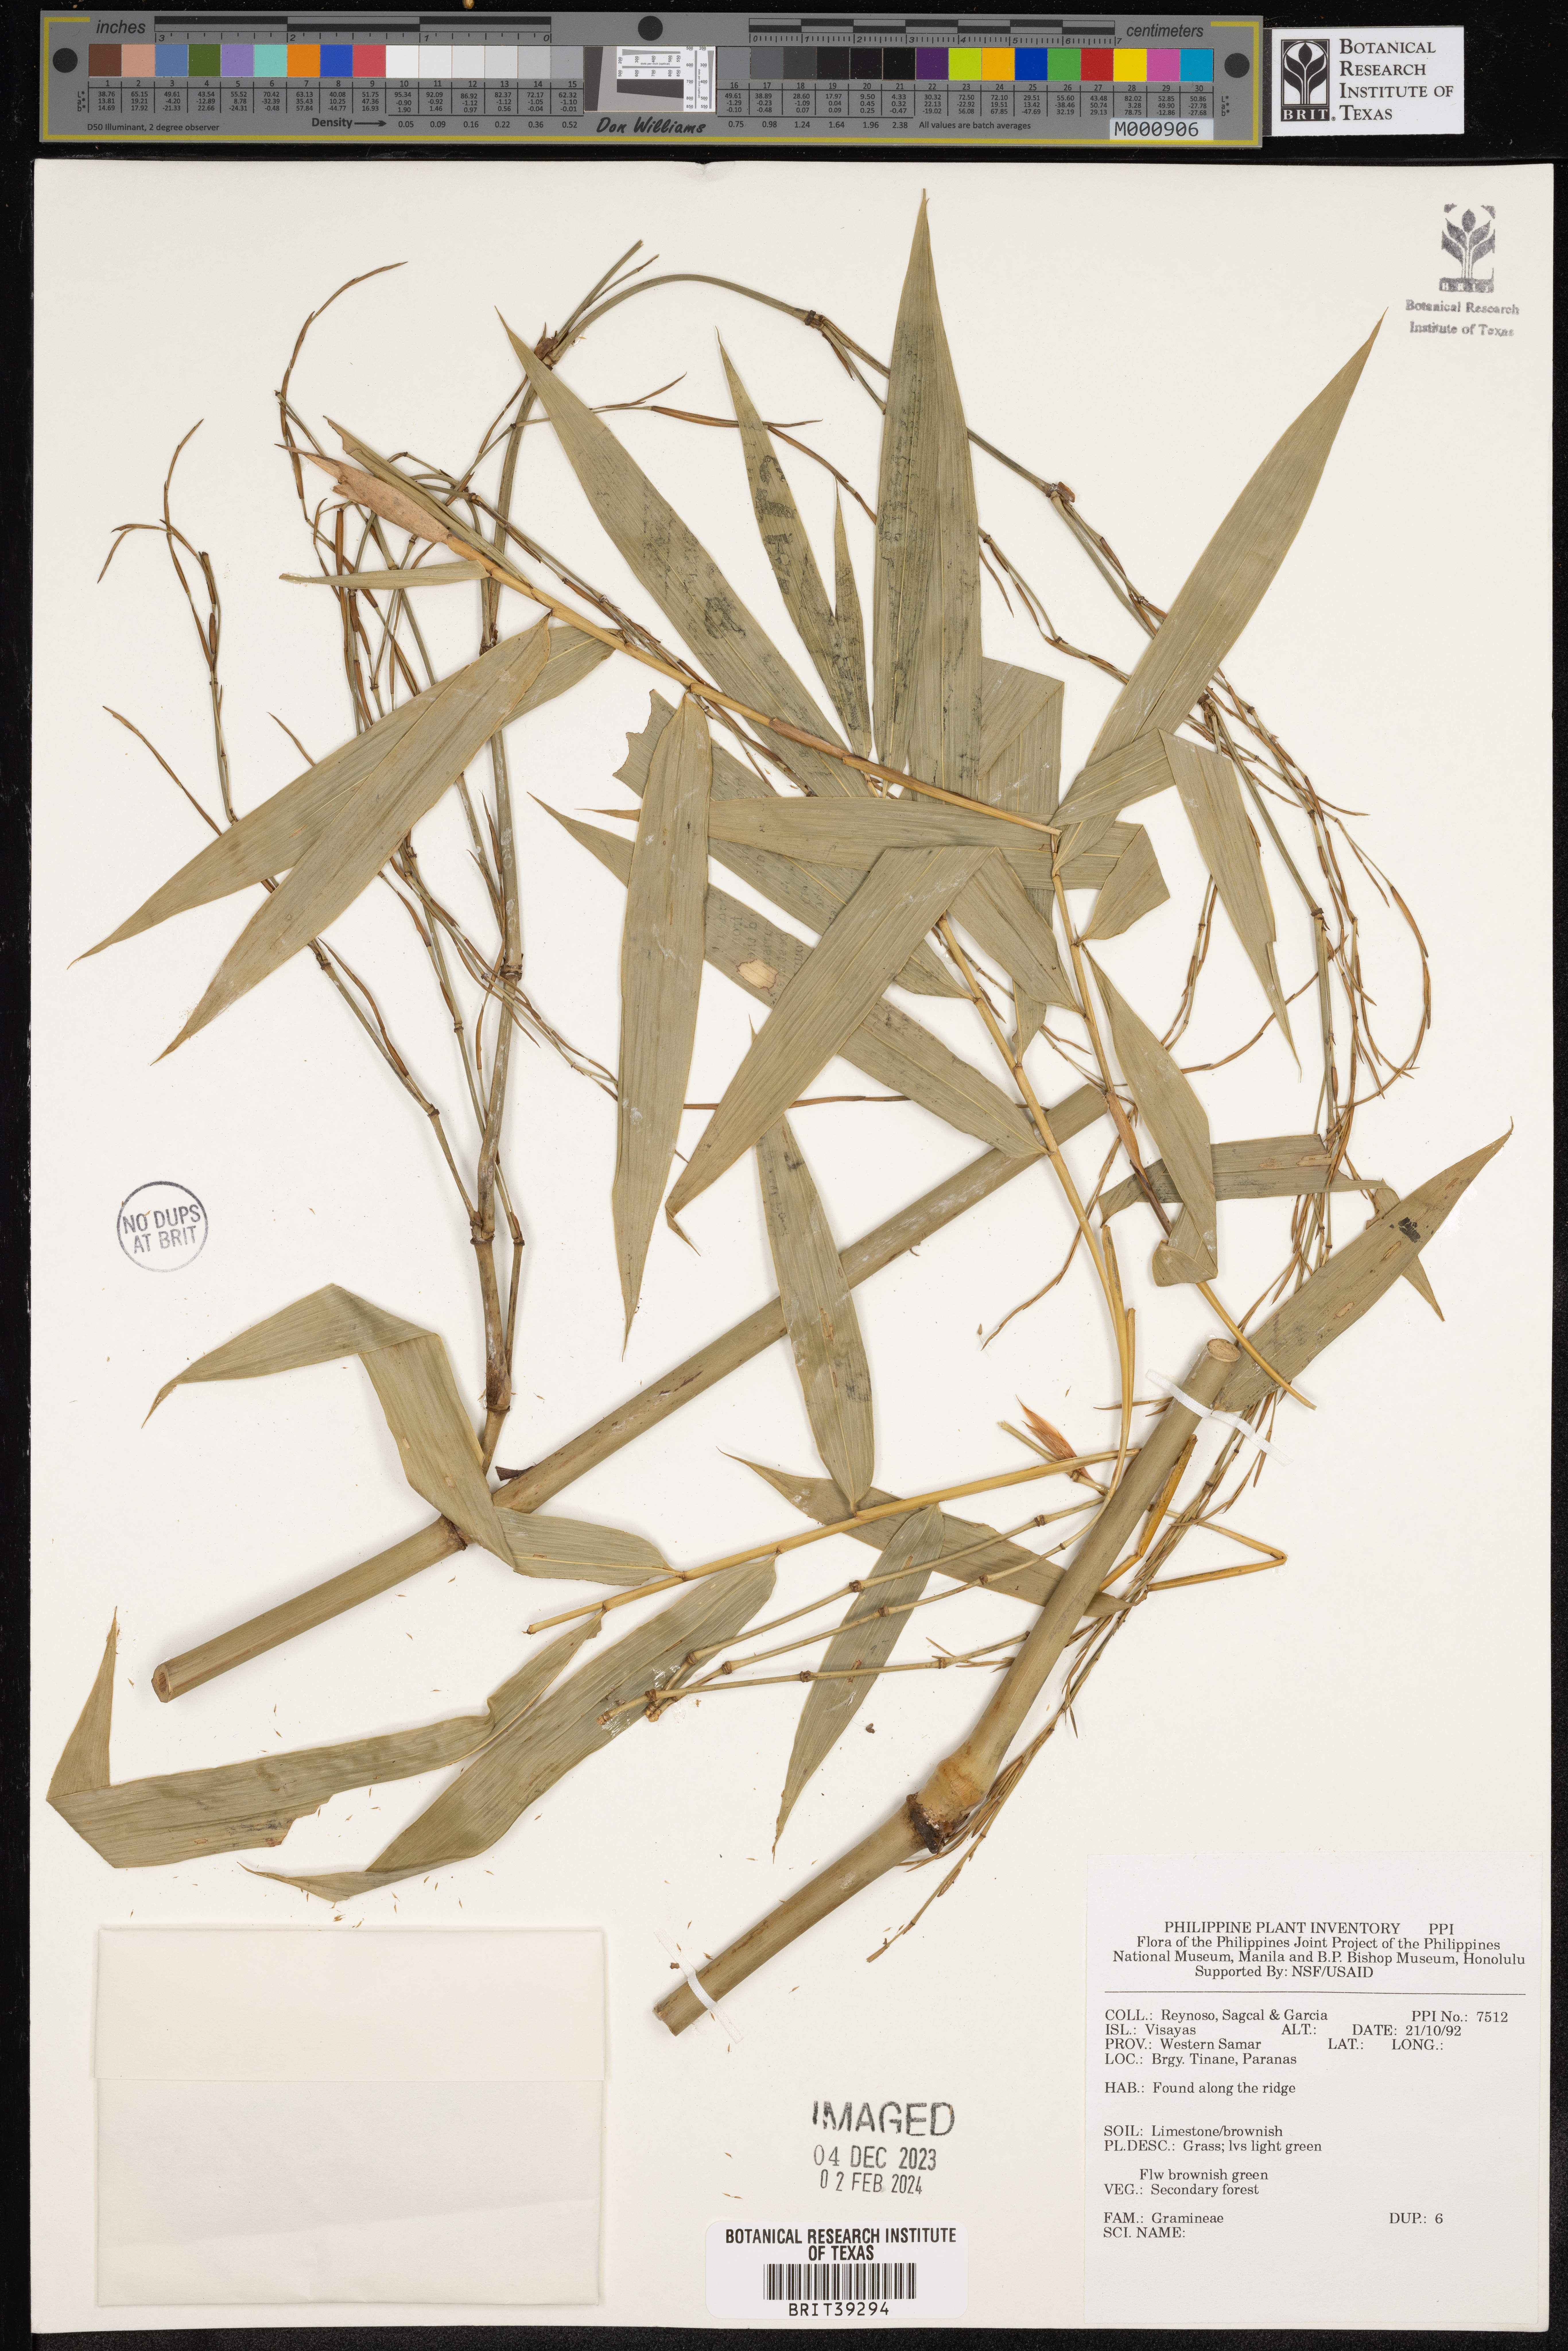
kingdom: Plantae
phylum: Tracheophyta
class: Liliopsida
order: Poales
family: Poaceae
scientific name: Poaceae
